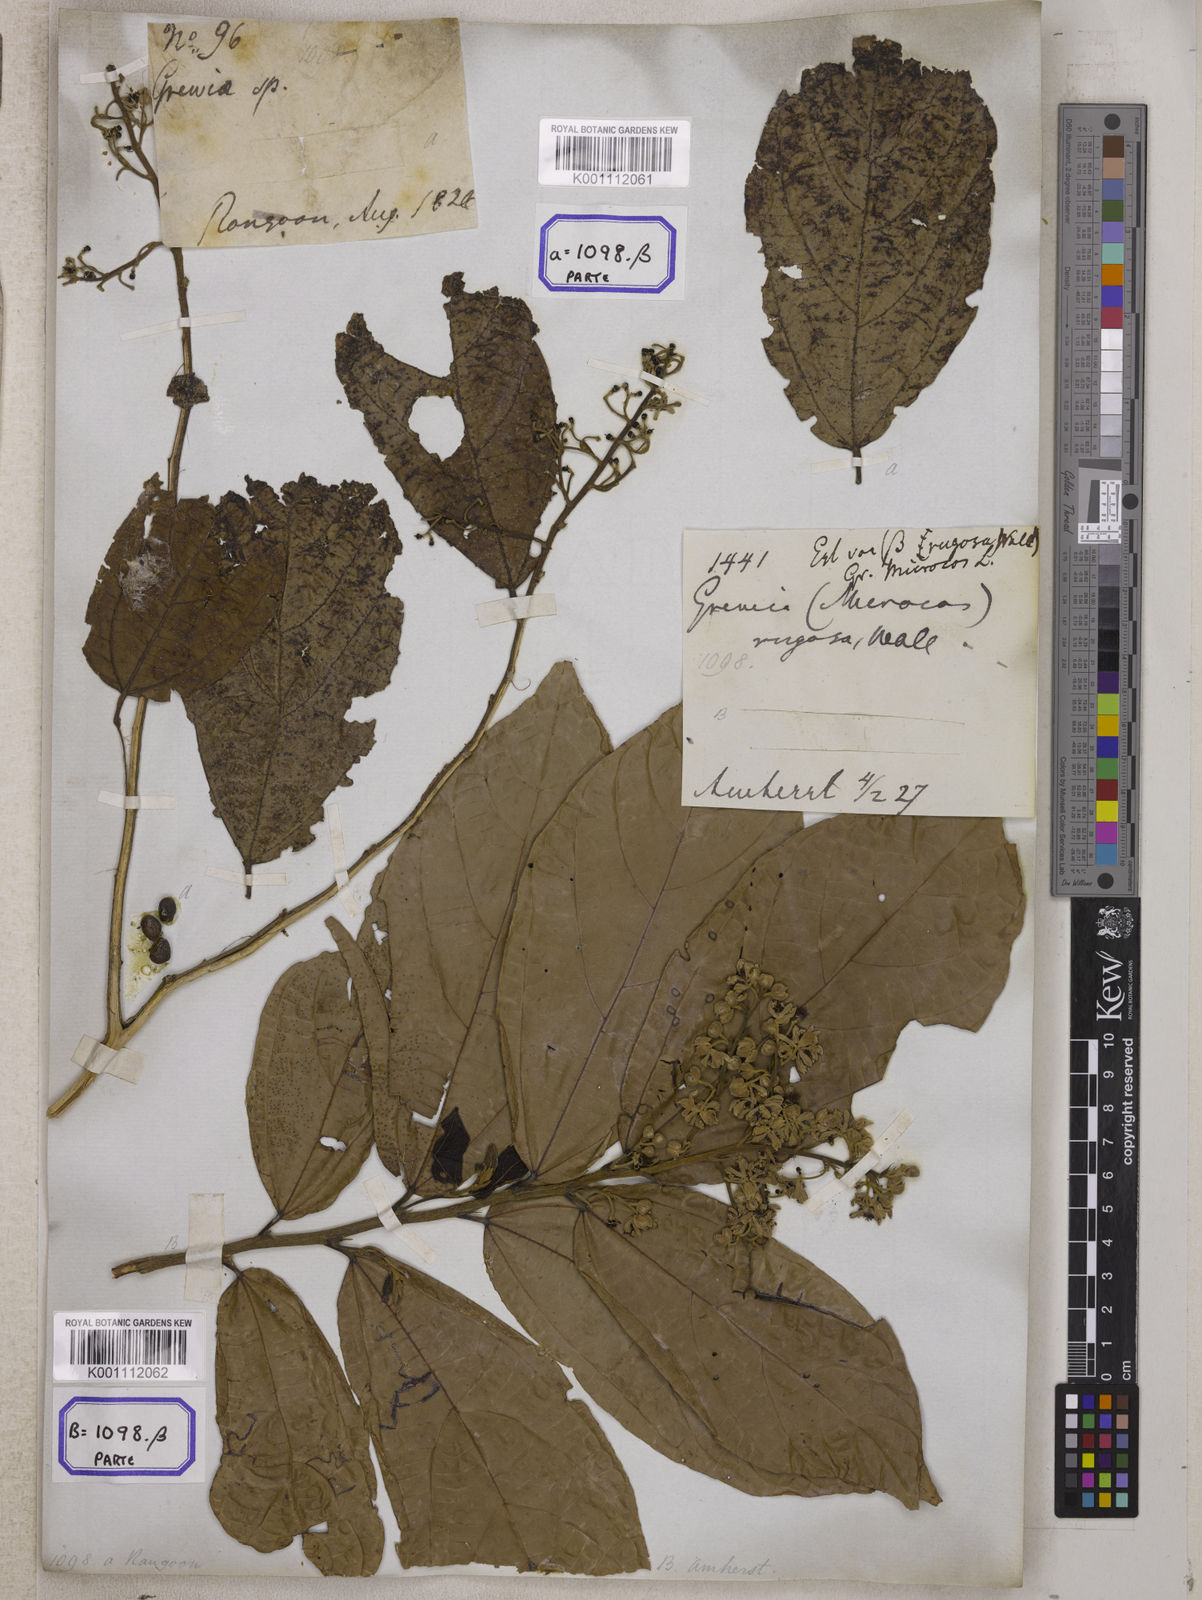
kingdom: Plantae
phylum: Tracheophyta
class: Magnoliopsida
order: Malvales
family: Malvaceae
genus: Grewia
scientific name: Grewia
